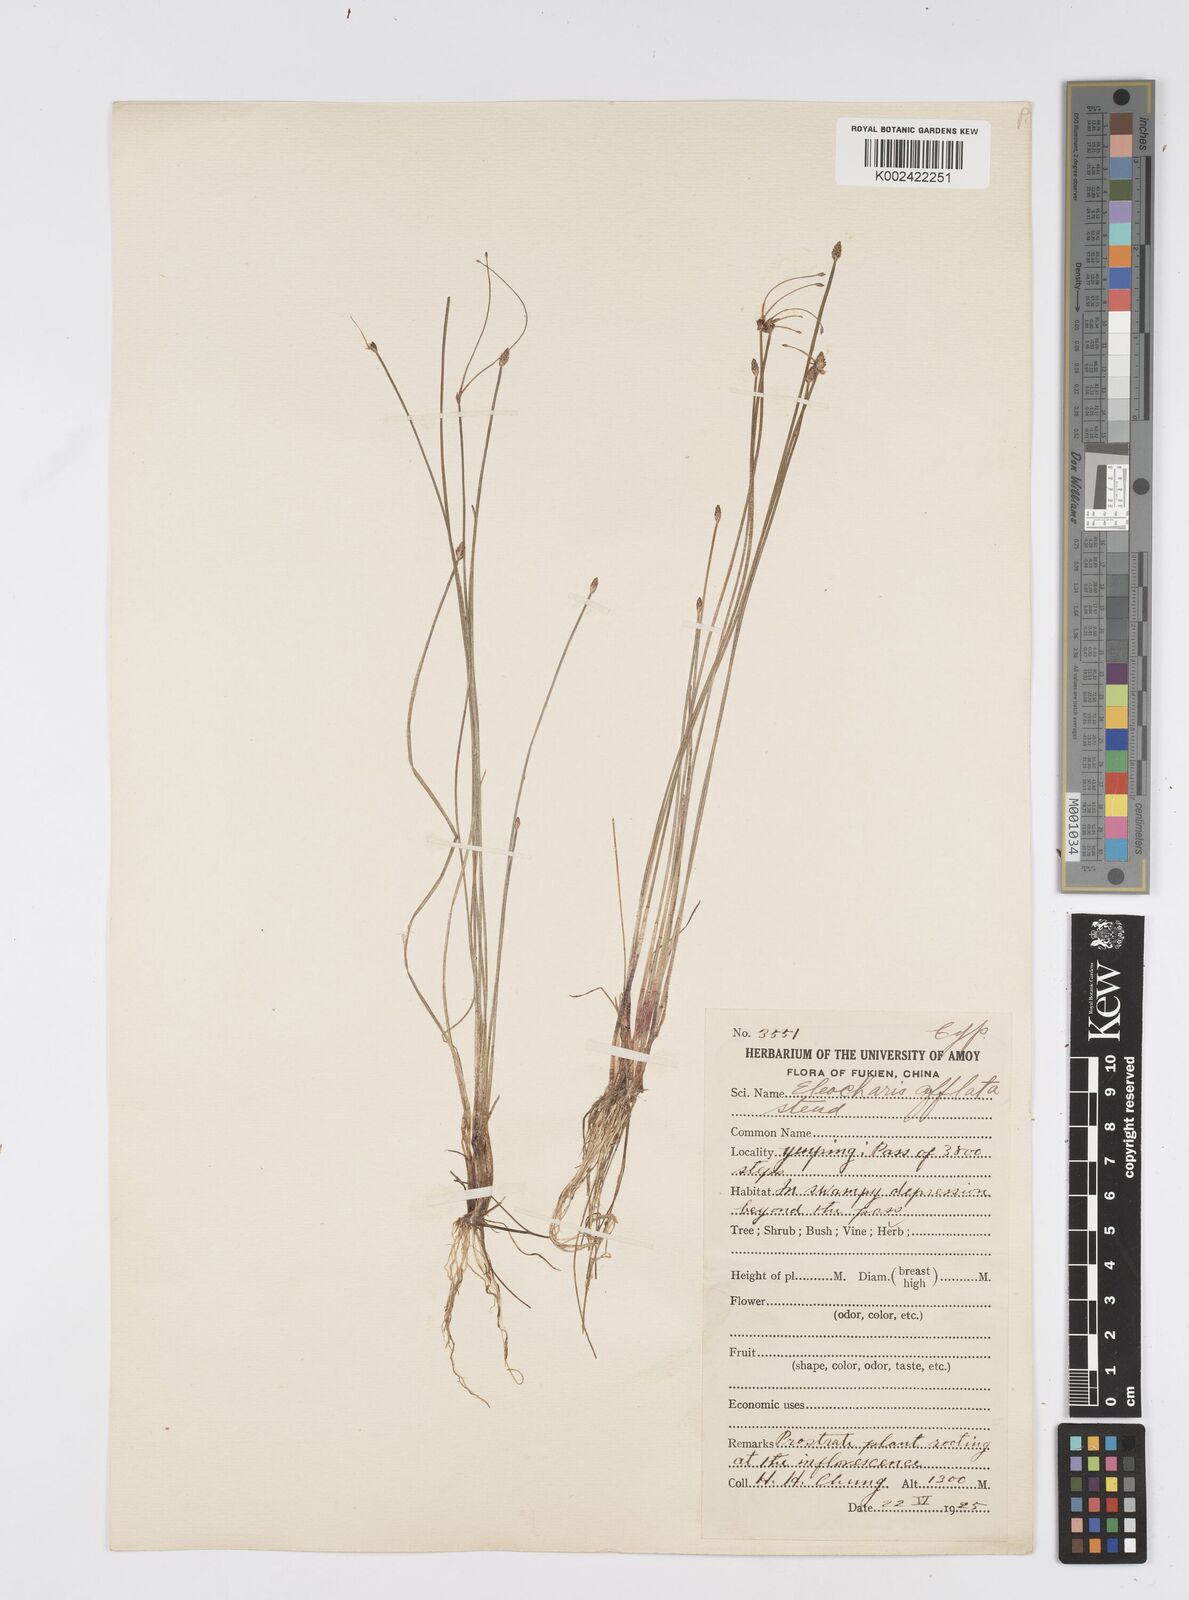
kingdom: Plantae
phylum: Tracheophyta
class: Liliopsida
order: Poales
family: Cyperaceae
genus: Eleocharis
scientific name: Eleocharis pellucida
